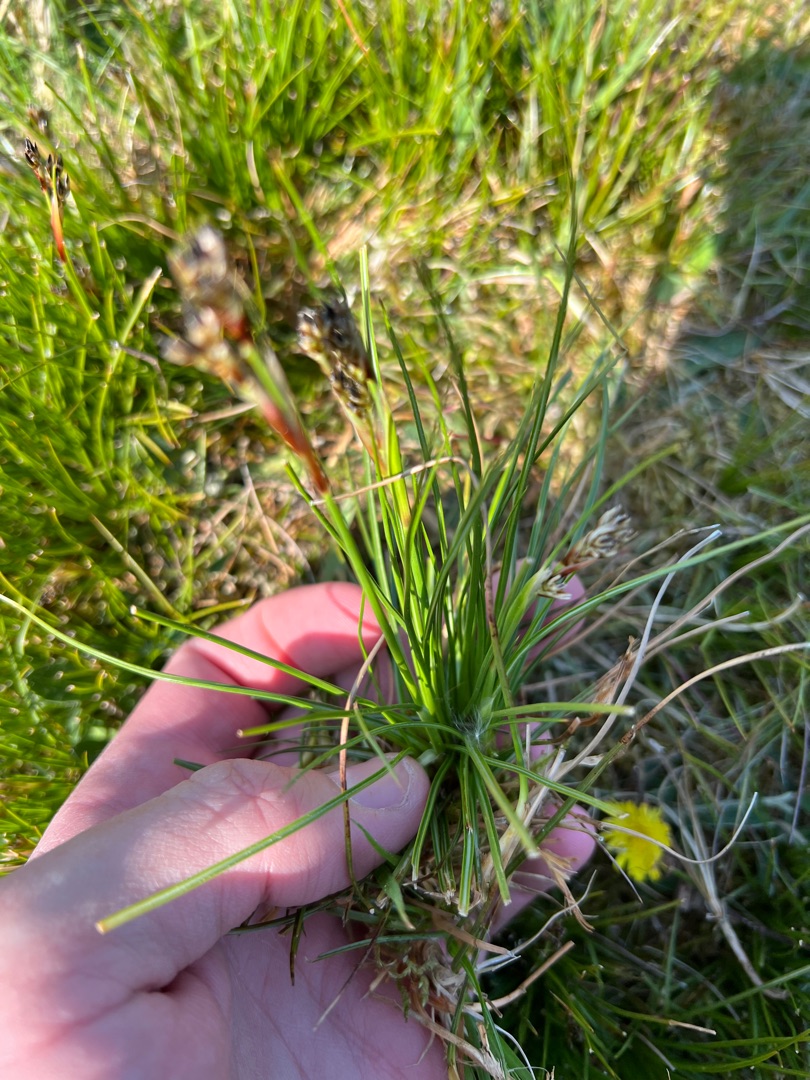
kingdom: Plantae
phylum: Tracheophyta
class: Liliopsida
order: Poales
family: Juncaceae
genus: Juncus
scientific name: Juncus squarrosus
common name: Børste-siv
